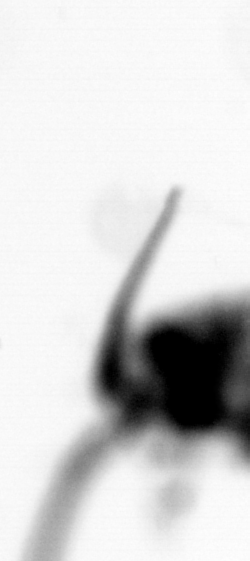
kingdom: Animalia
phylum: Arthropoda
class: Copepoda
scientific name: Copepoda
